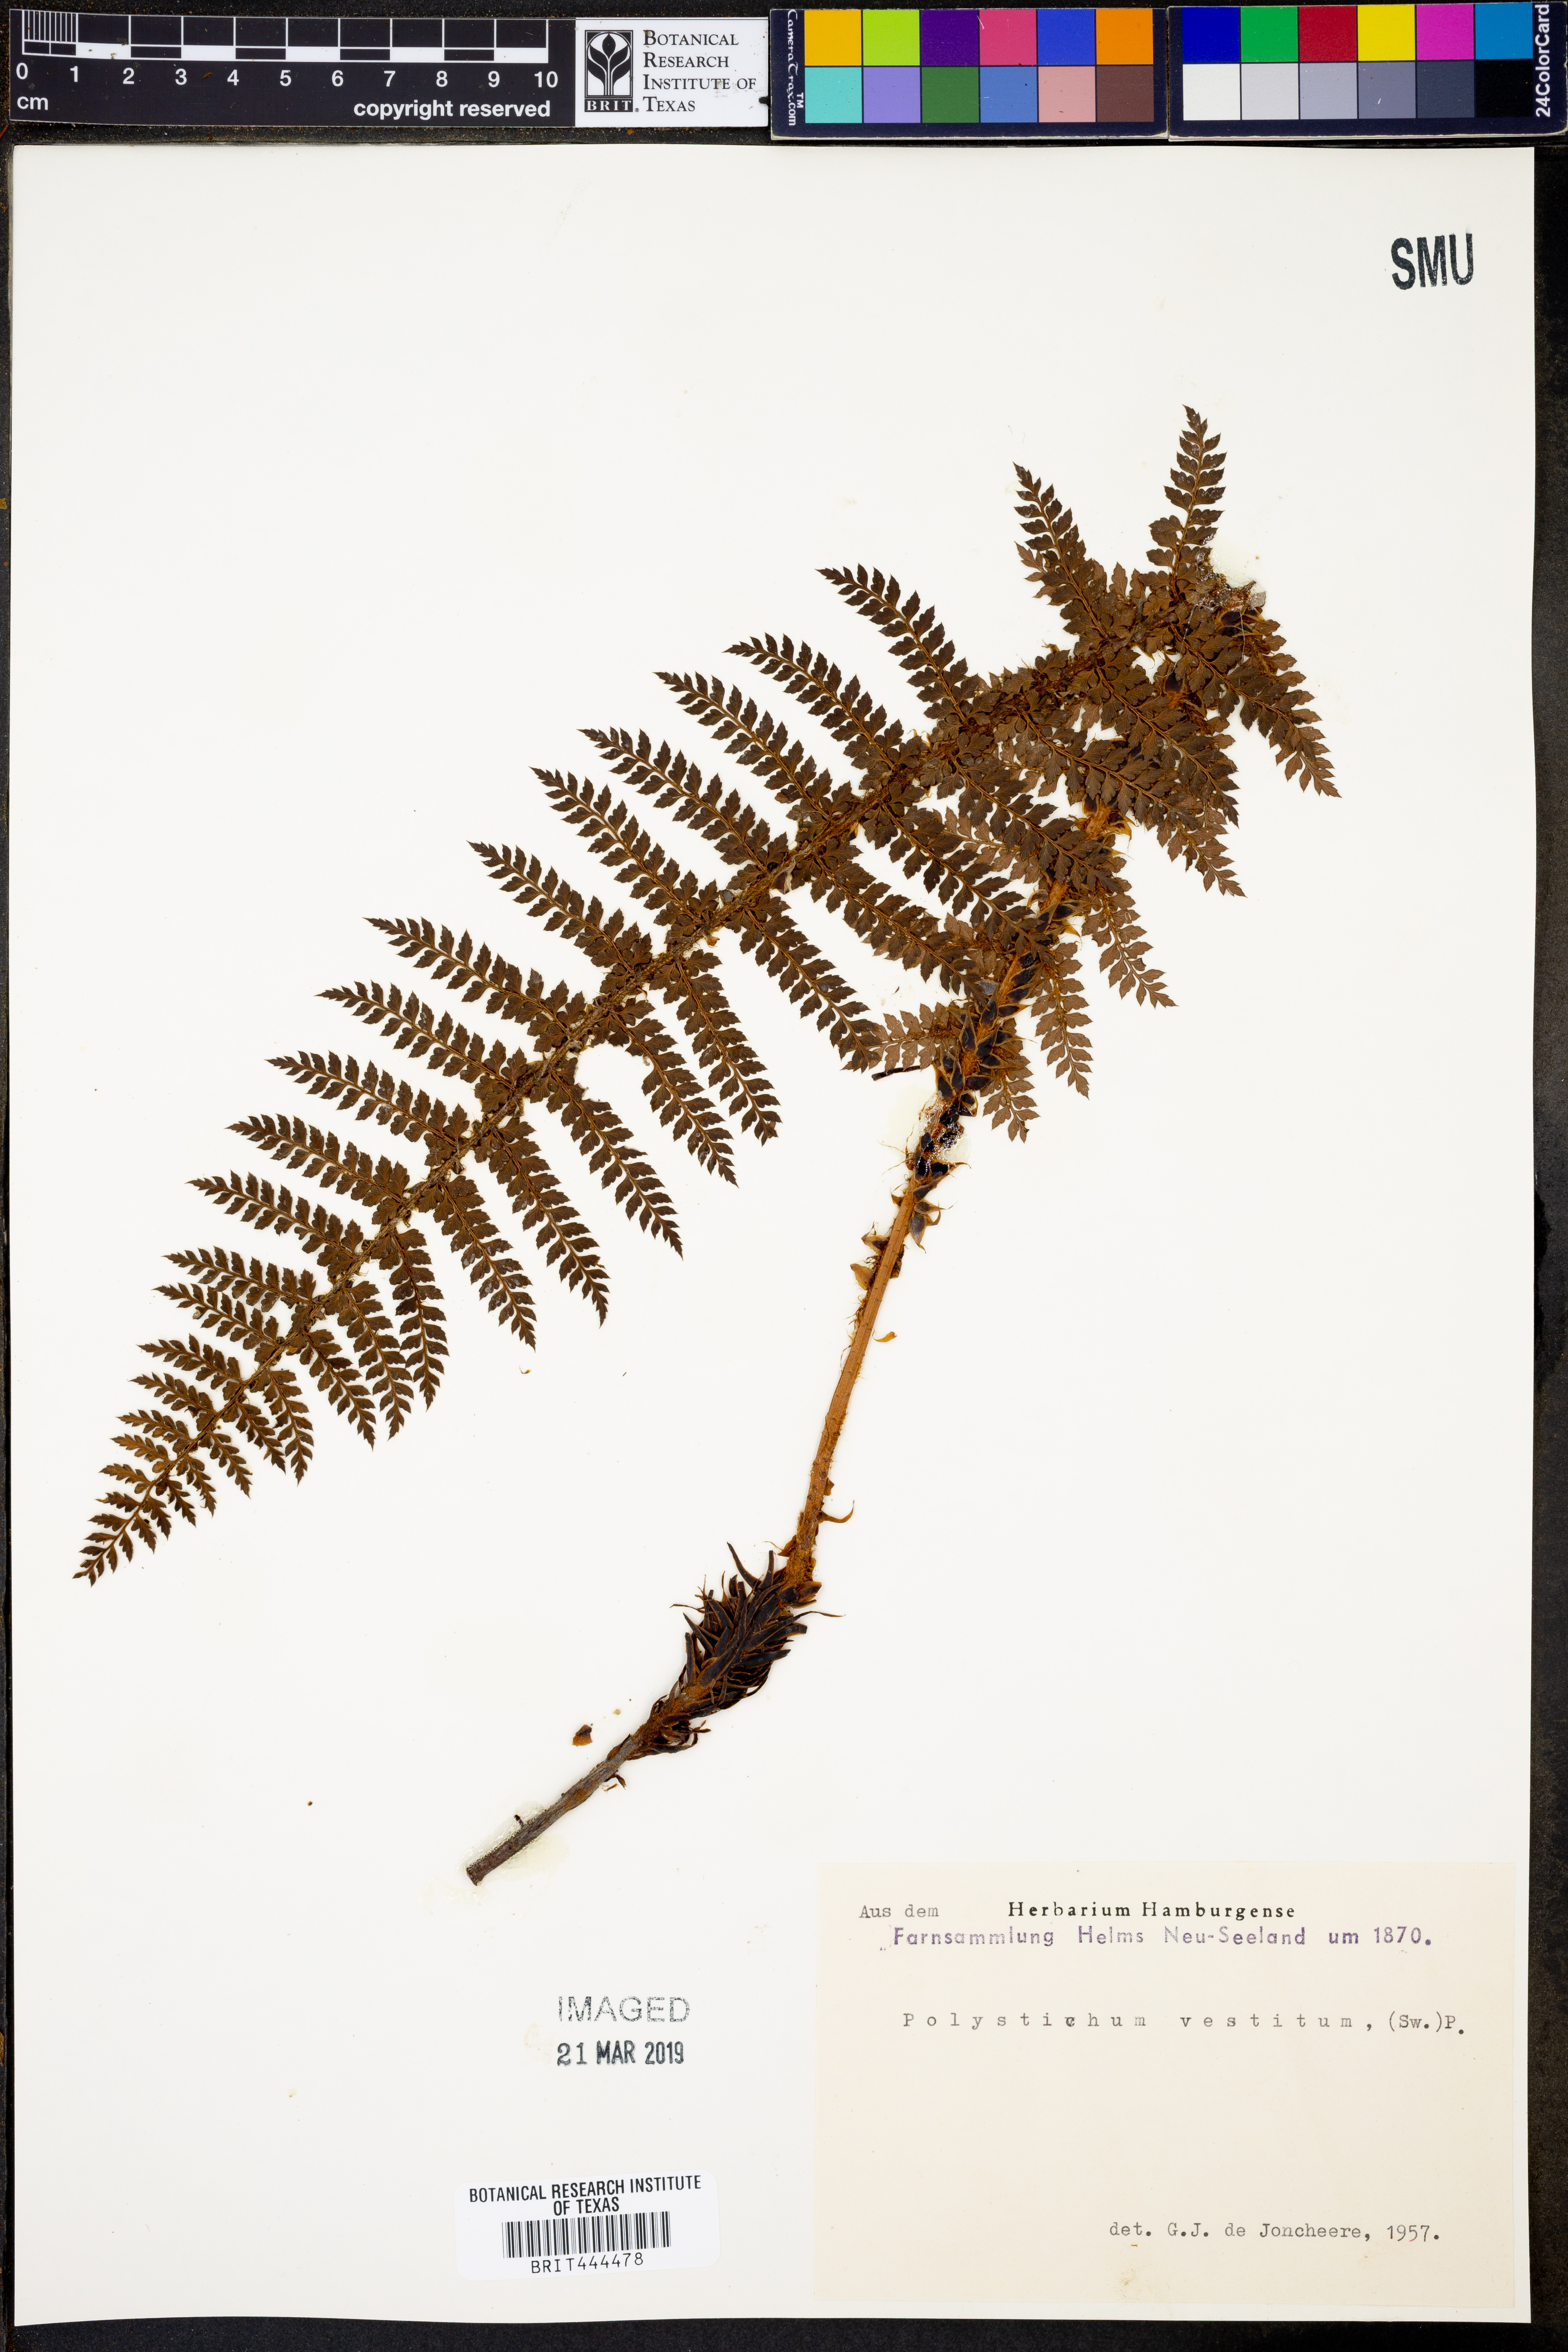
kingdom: Plantae
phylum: Tracheophyta
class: Polypodiopsida
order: Polypodiales
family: Dryopteridaceae
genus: Polystichum
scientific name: Polystichum vestitum
